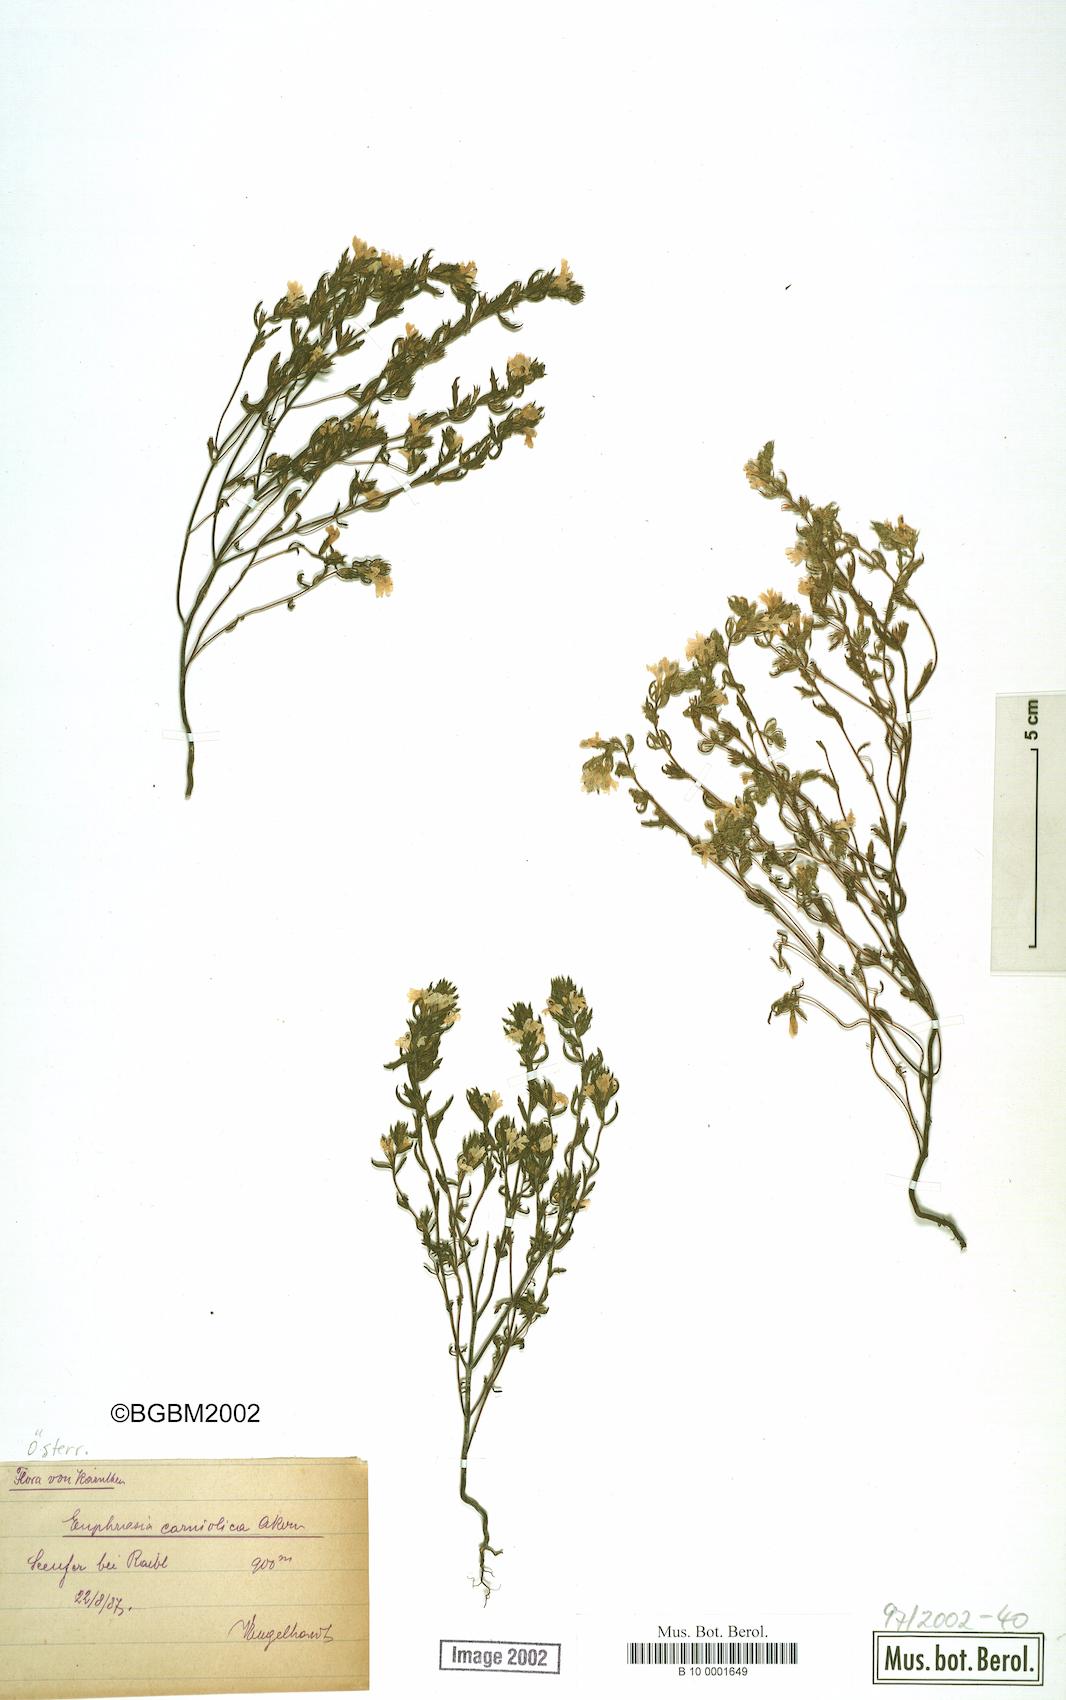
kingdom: Plantae
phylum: Tracheophyta
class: Magnoliopsida
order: Lamiales
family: Orobanchaceae
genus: Euphrasia
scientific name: Euphrasia officinalis
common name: Eyebright
